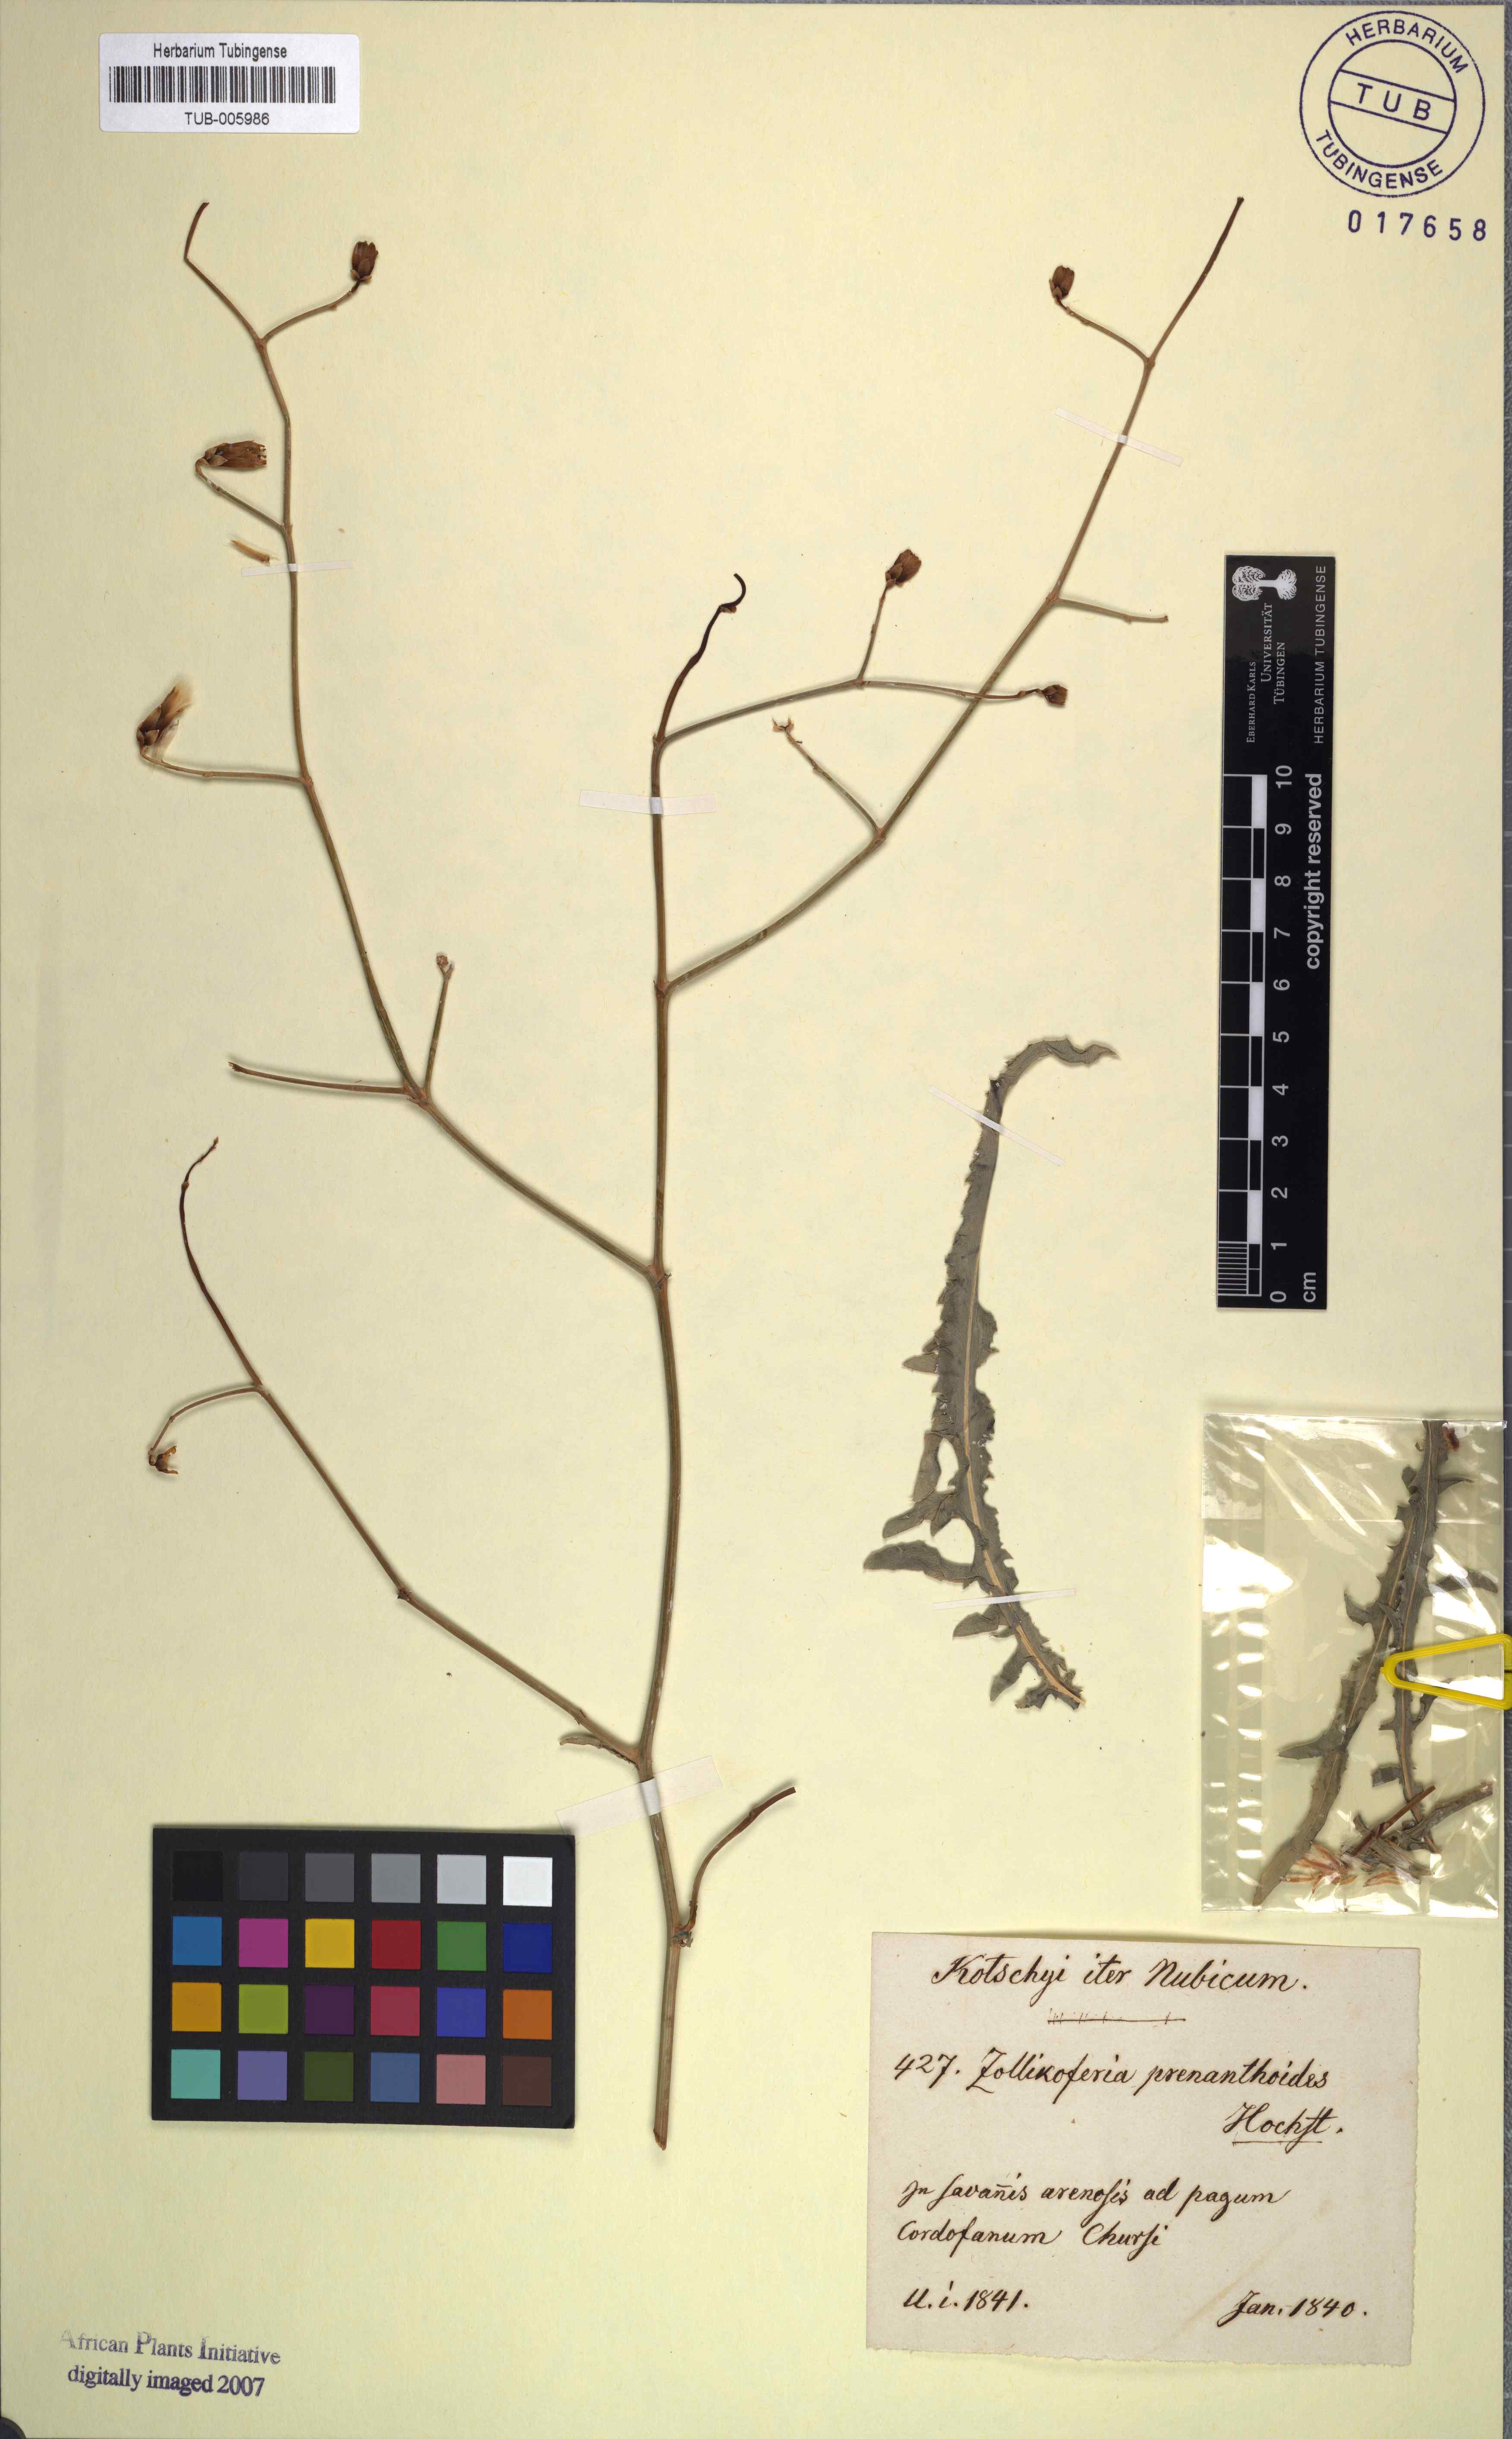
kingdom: Plantae
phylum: Tracheophyta
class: Magnoliopsida
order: Asterales
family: Asteraceae
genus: Launaea
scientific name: Launaea brunneri
